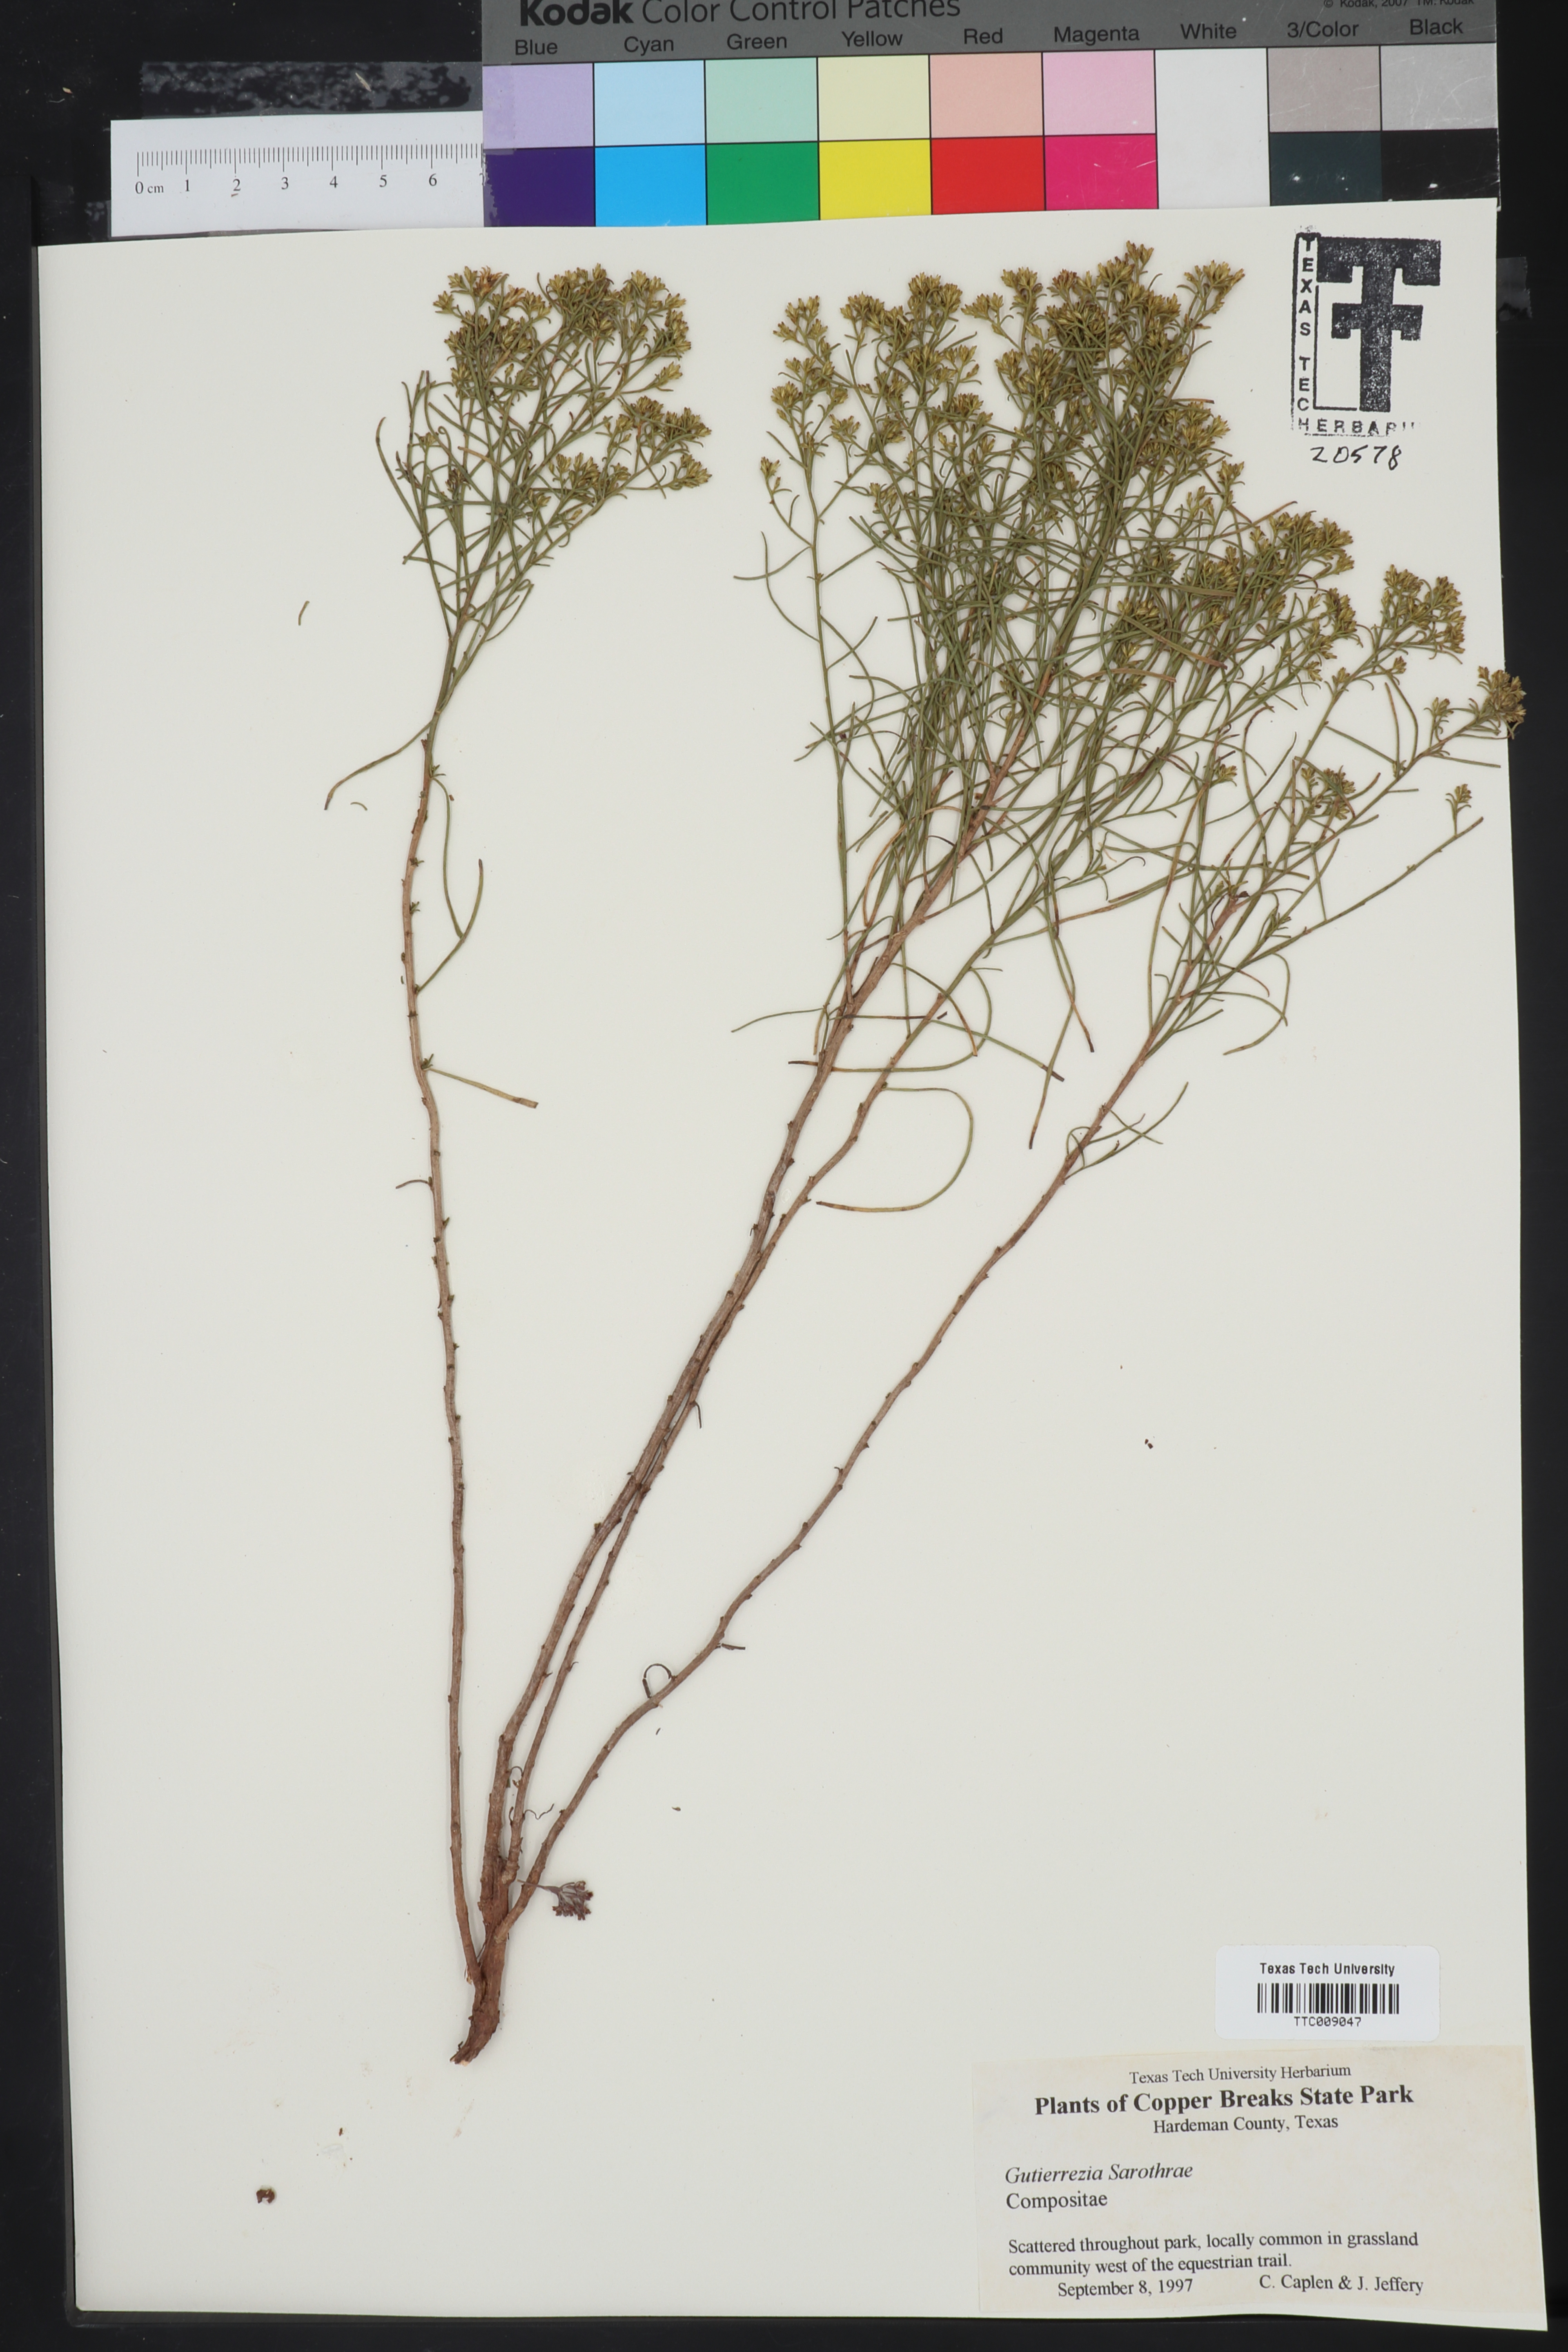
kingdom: Plantae
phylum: Tracheophyta
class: Magnoliopsida
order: Asterales
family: Asteraceae
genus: Gutierrezia
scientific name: Gutierrezia sarothrae
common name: Broom snakeweed
